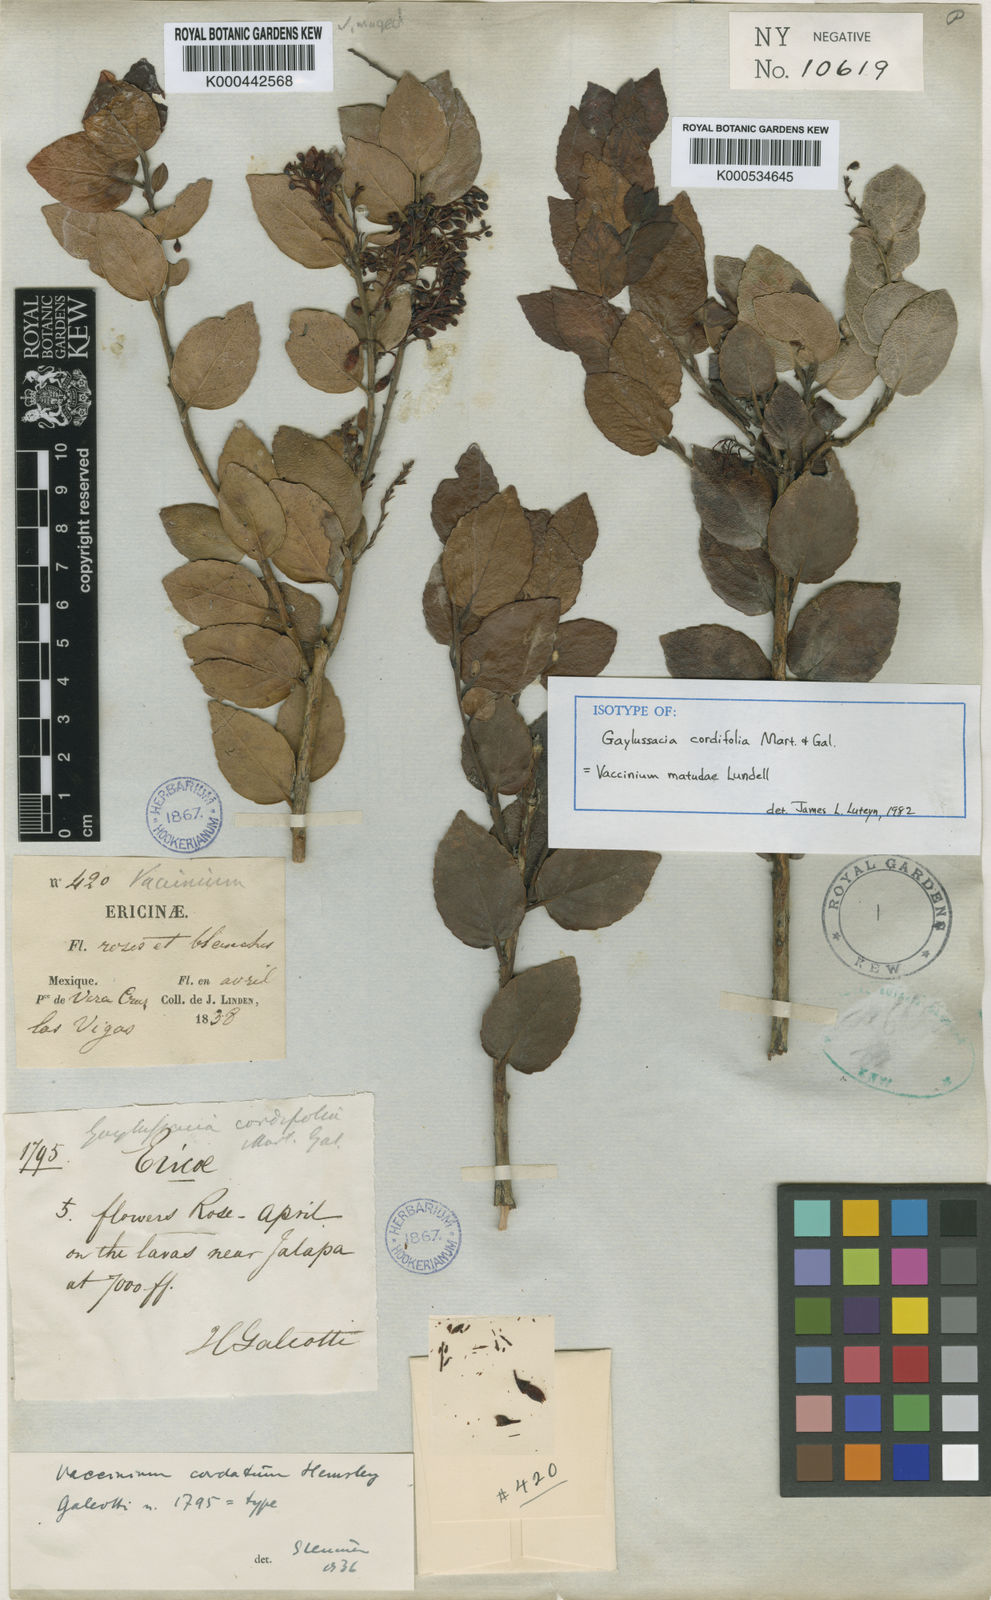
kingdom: Plantae
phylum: Tracheophyta
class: Magnoliopsida
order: Ericales
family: Ericaceae
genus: Vaccinium
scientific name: Vaccinium cordifolium
